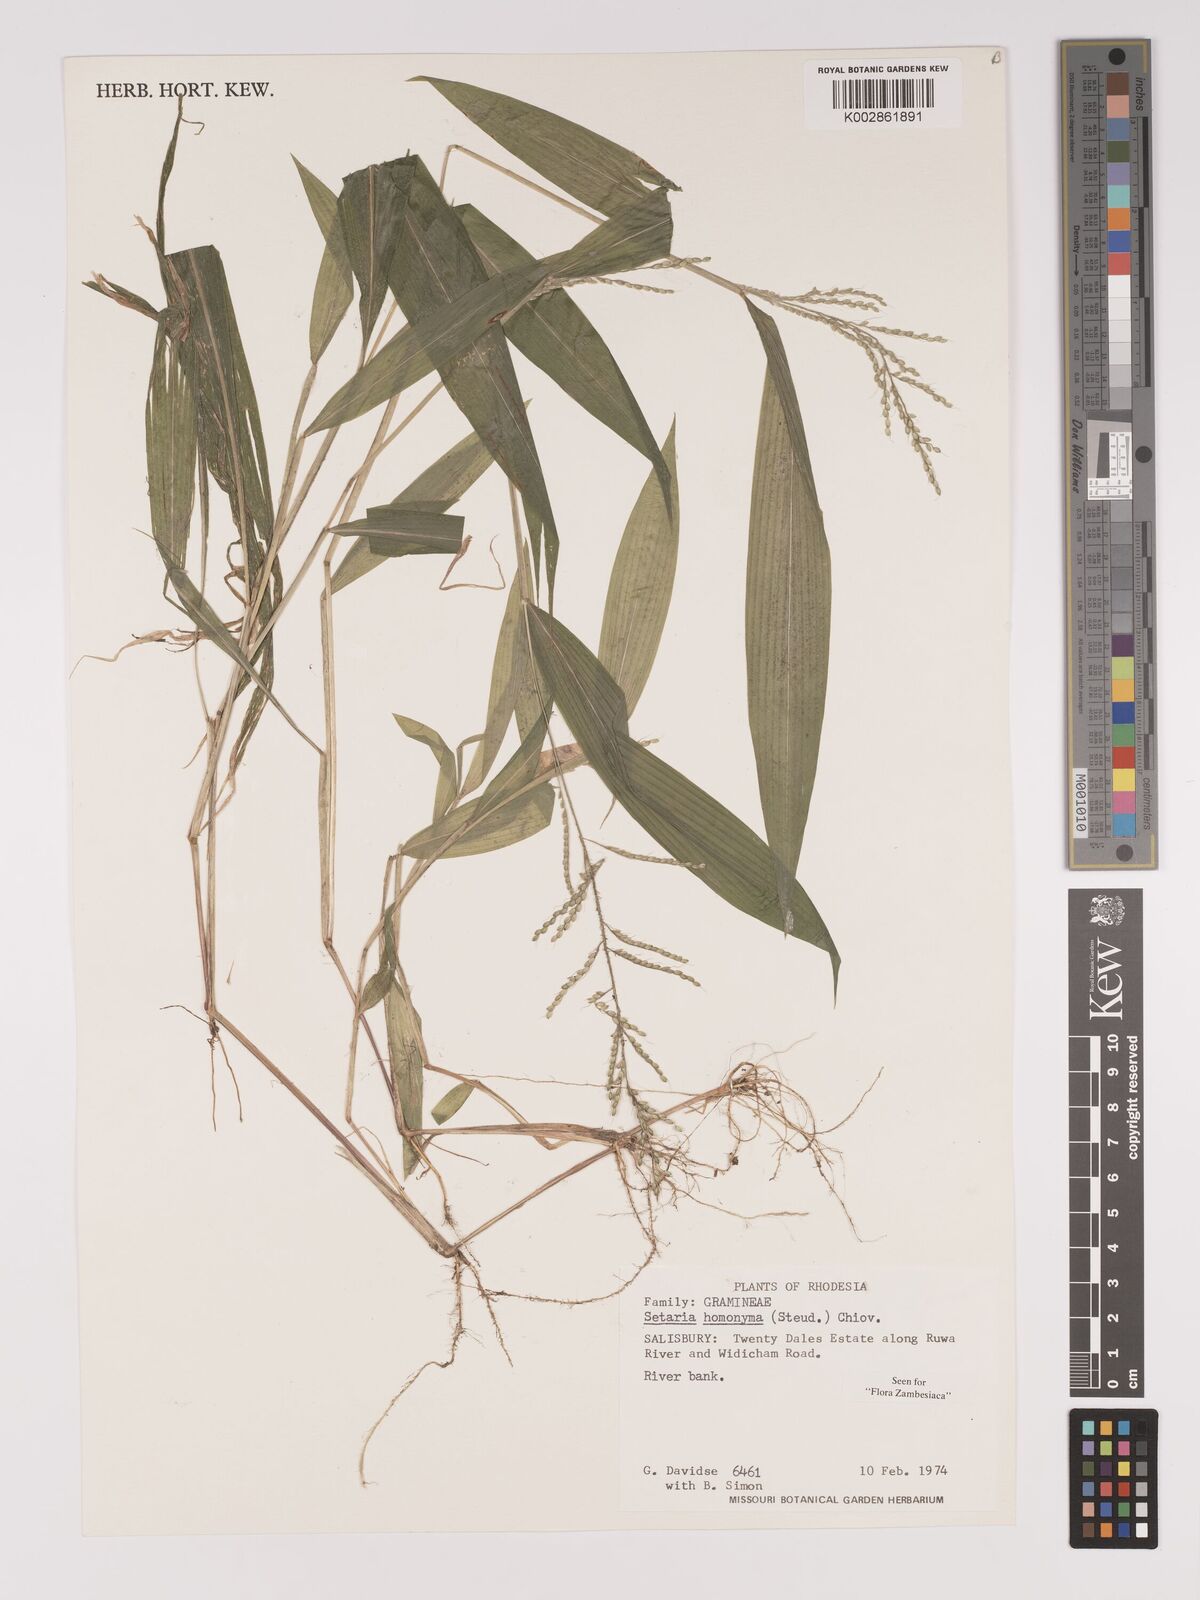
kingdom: Plantae
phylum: Tracheophyta
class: Liliopsida
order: Poales
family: Poaceae
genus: Setaria
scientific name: Setaria homonyma
